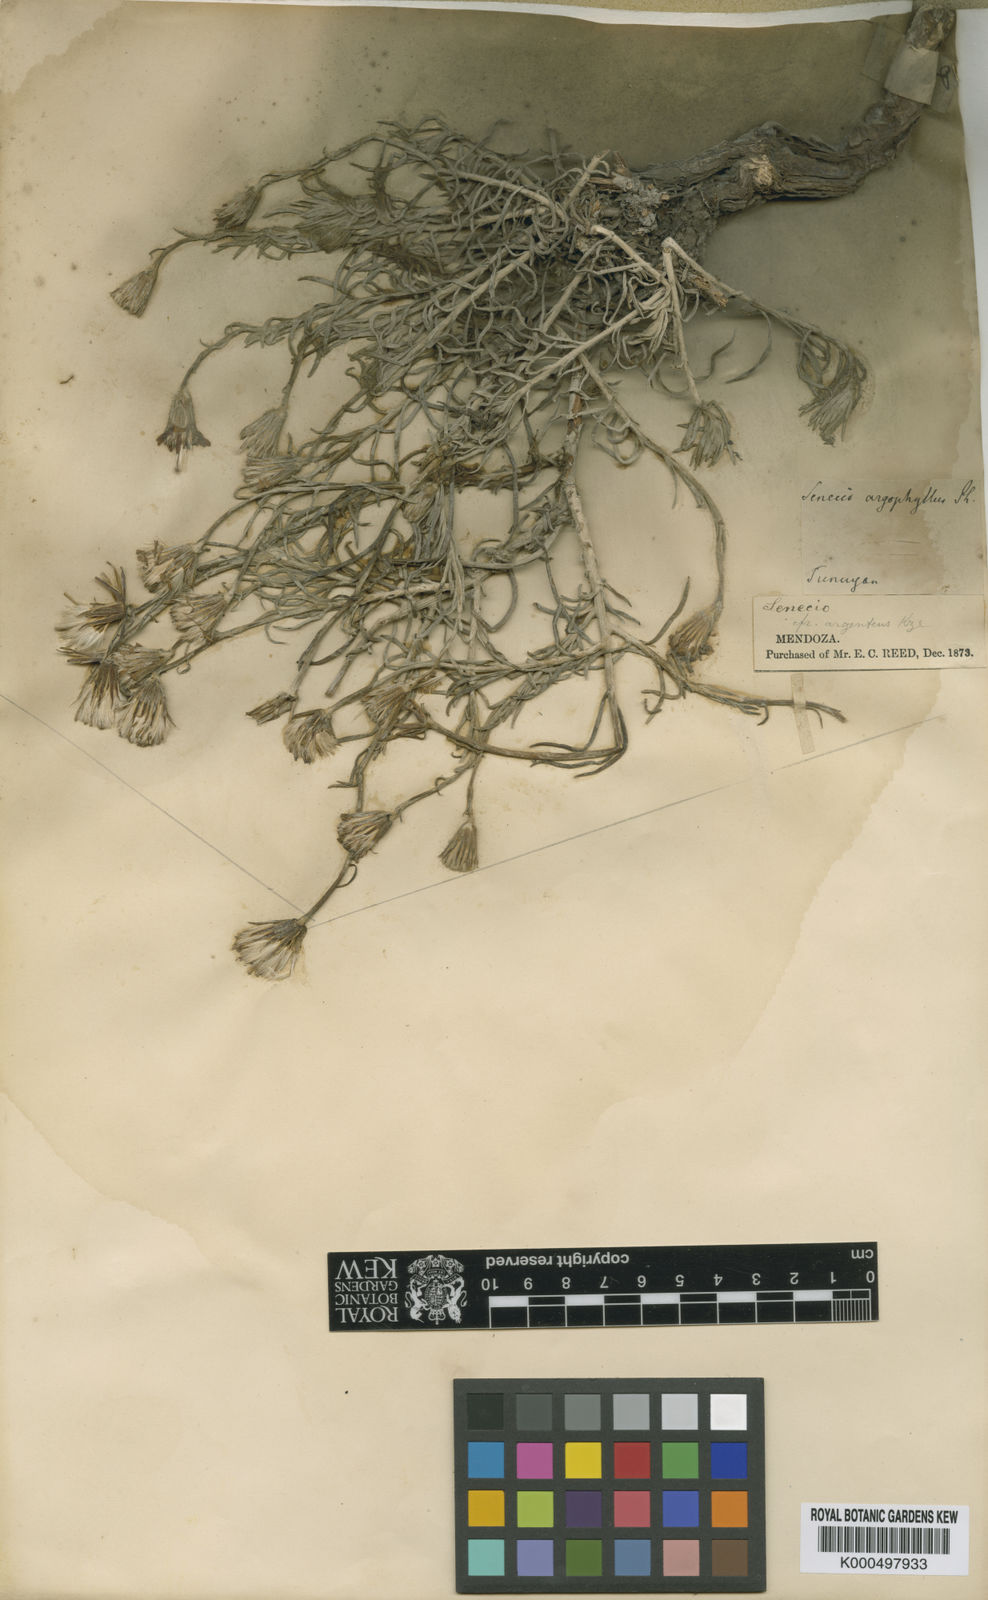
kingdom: Plantae
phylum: Tracheophyta
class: Magnoliopsida
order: Asterales
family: Asteraceae
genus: Senecio
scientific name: Senecio chilensis
